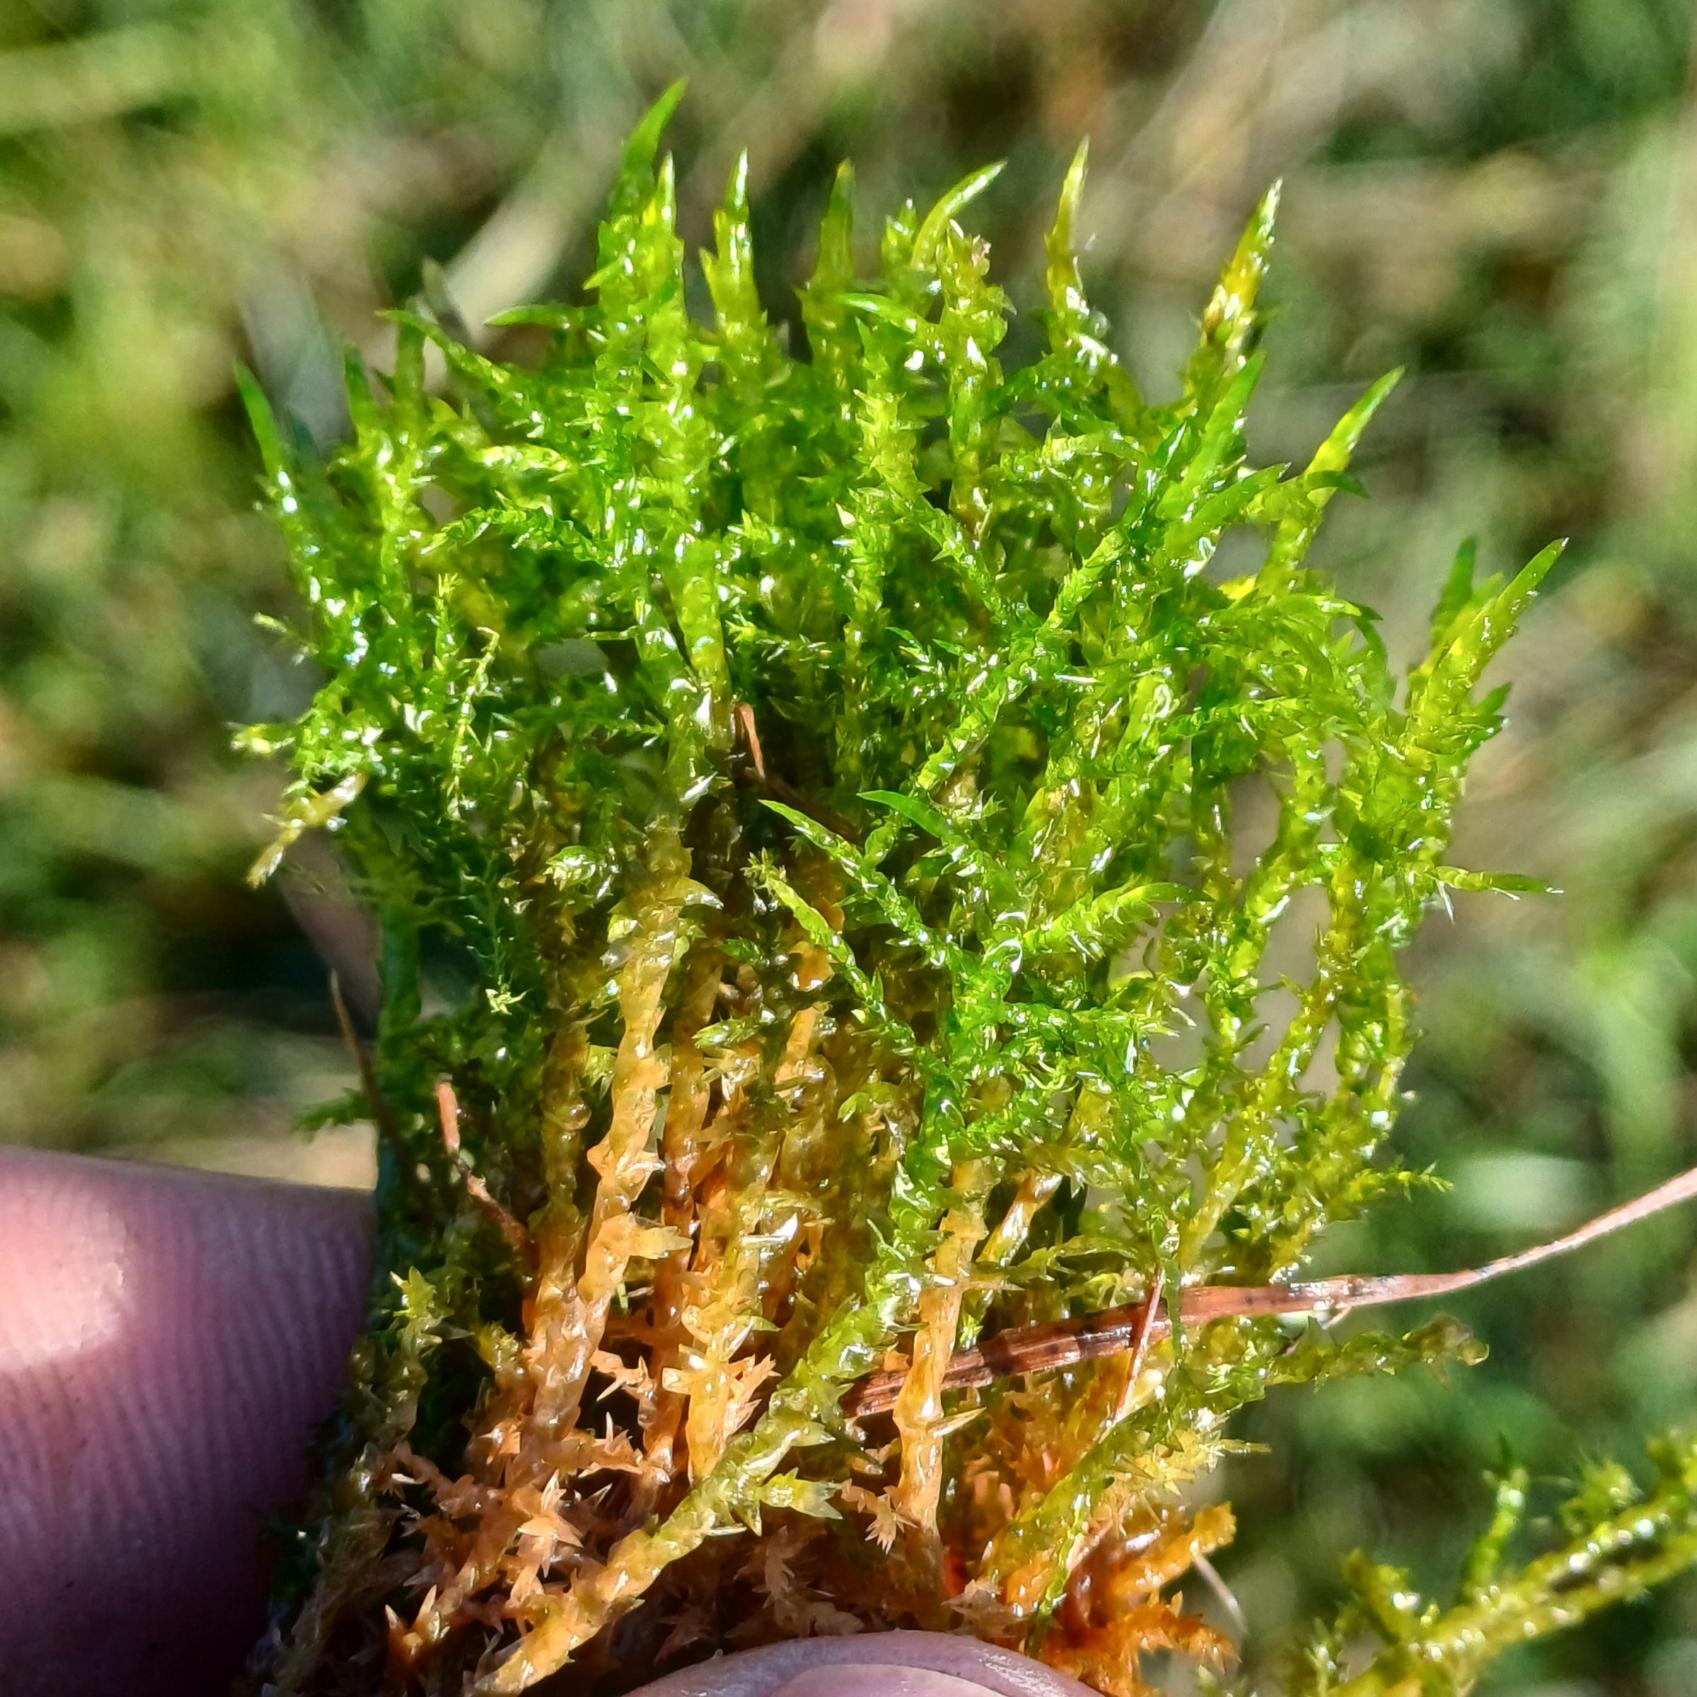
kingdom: Plantae
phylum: Bryophyta
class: Bryopsida
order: Hypnales
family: Pylaisiaceae
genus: Calliergonella
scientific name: Calliergonella cuspidata
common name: Spids spydmos
